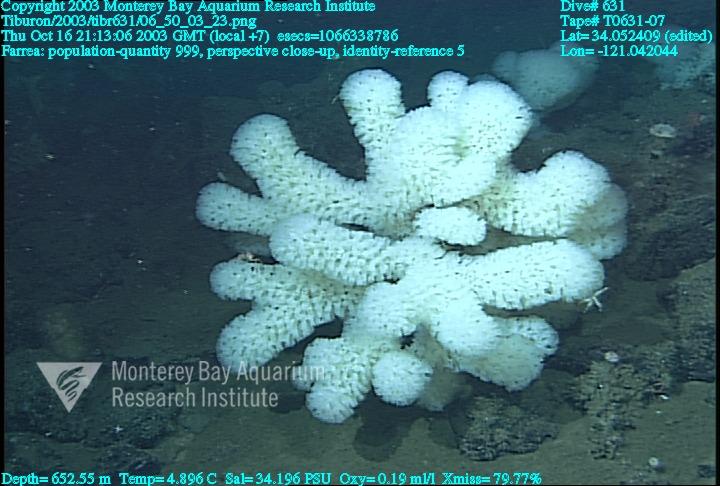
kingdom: Animalia
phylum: Porifera
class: Hexactinellida
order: Sceptrulophora
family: Farreidae
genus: Farrea
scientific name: Farrea
